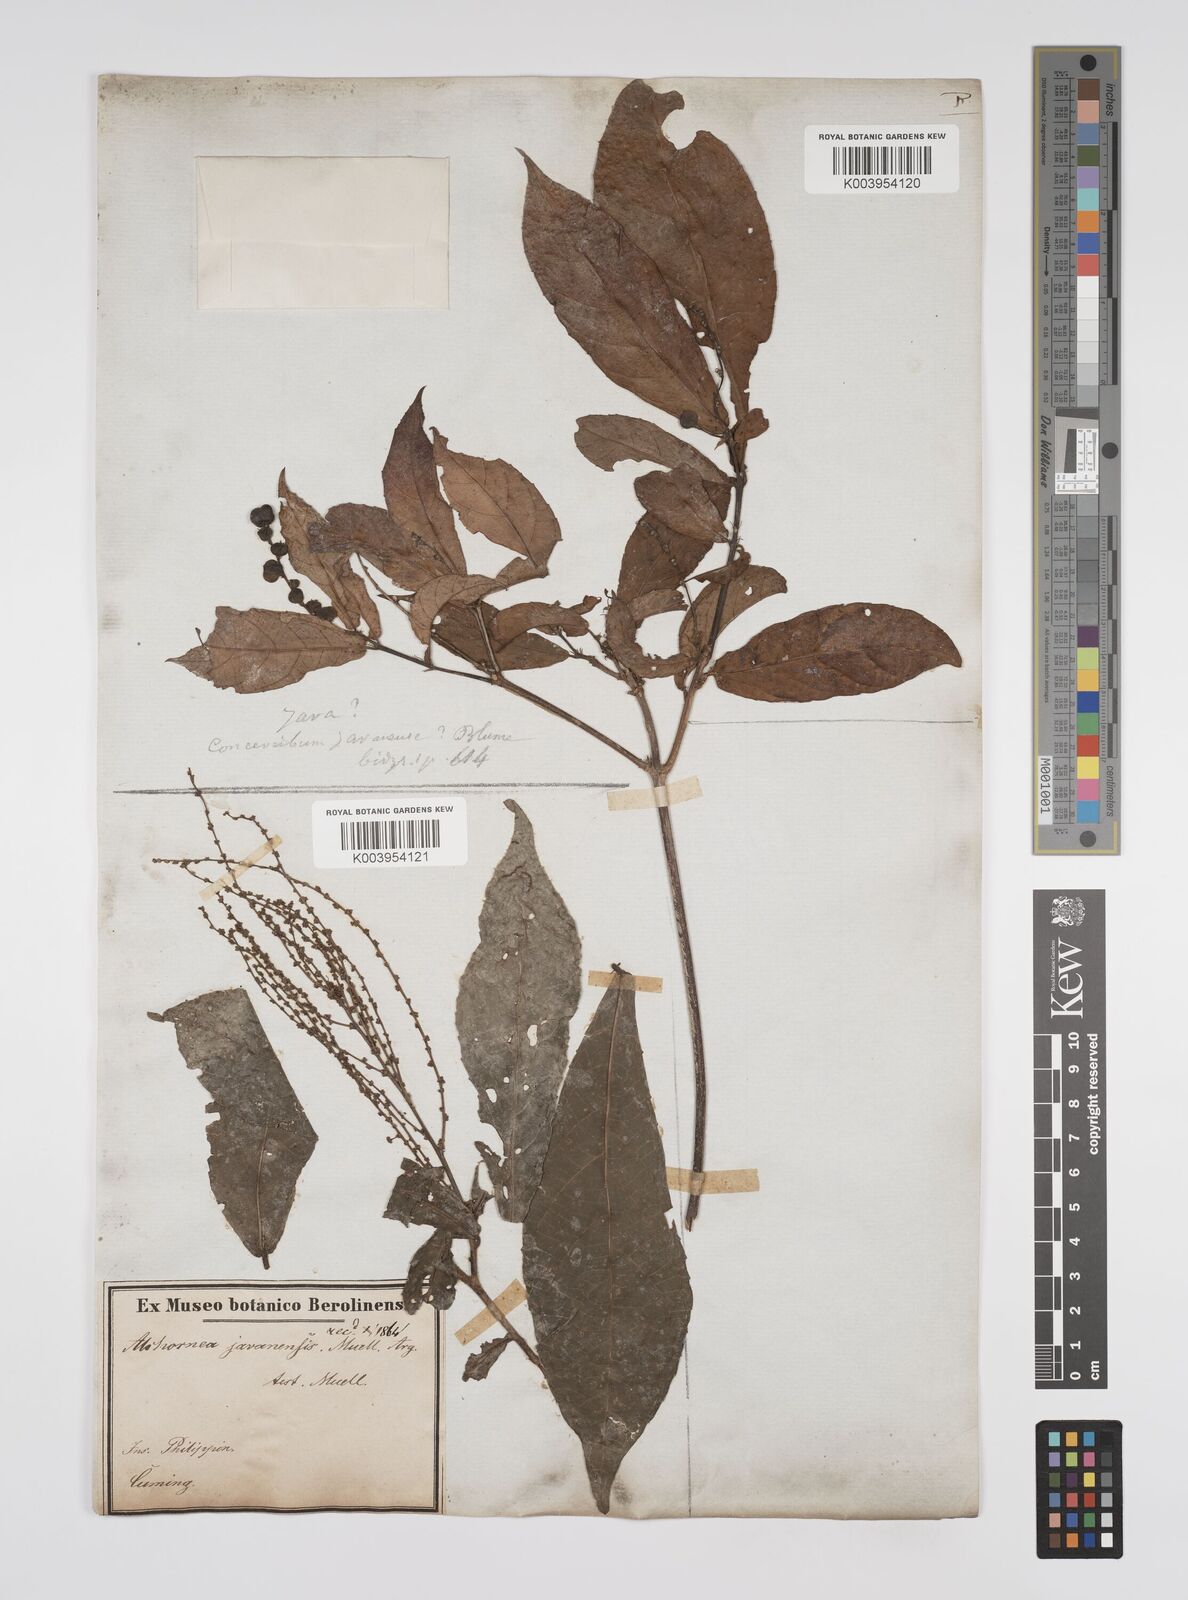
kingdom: Plantae
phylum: Tracheophyta
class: Magnoliopsida
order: Malpighiales
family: Euphorbiaceae
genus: Alchornea
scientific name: Alchornea rugosa
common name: Alchorntree
